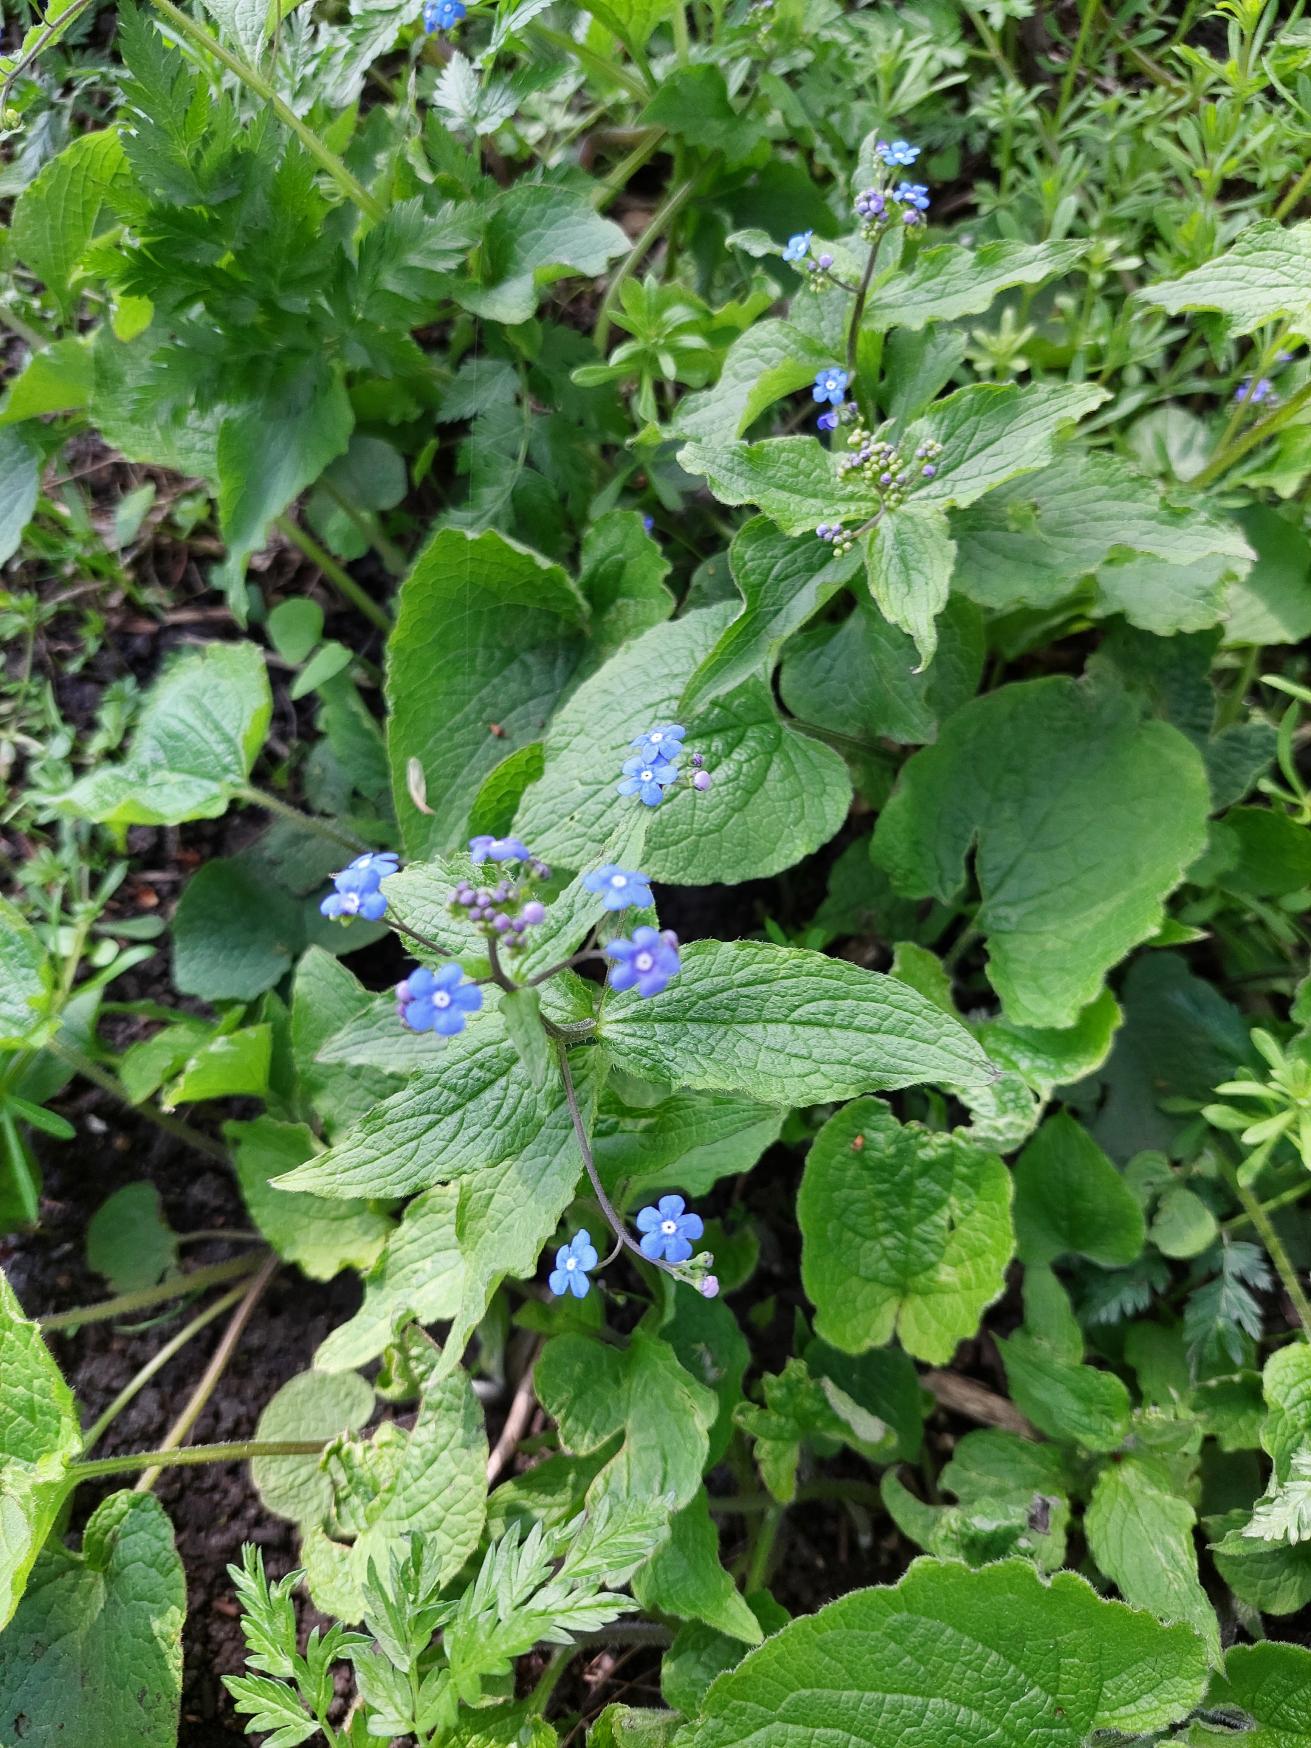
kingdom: Plantae
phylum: Tracheophyta
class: Magnoliopsida
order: Boraginales
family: Boraginaceae
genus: Brunnera
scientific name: Brunnera macrophylla
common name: Kærmindesøster
